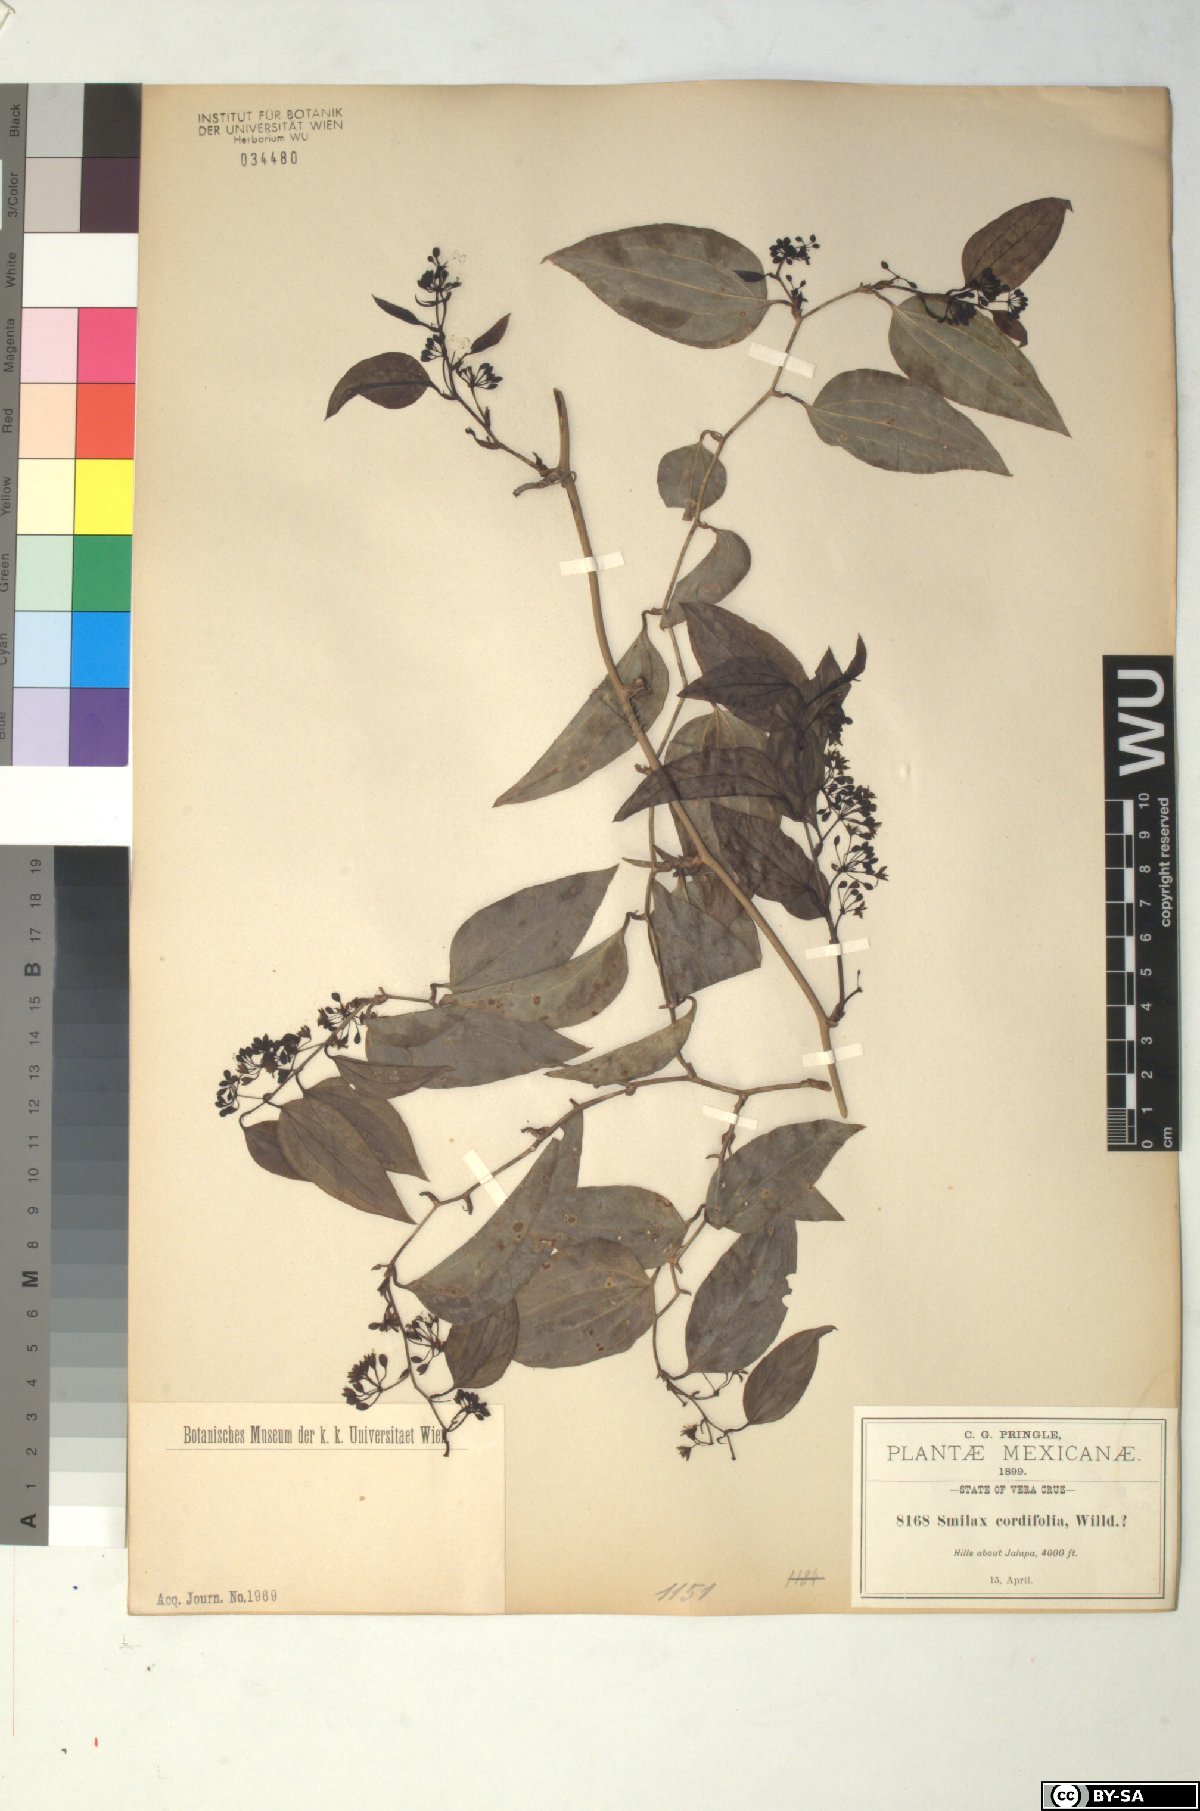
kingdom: Plantae
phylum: Tracheophyta
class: Liliopsida
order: Liliales
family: Smilacaceae
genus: Smilax
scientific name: Smilax cordifolia
